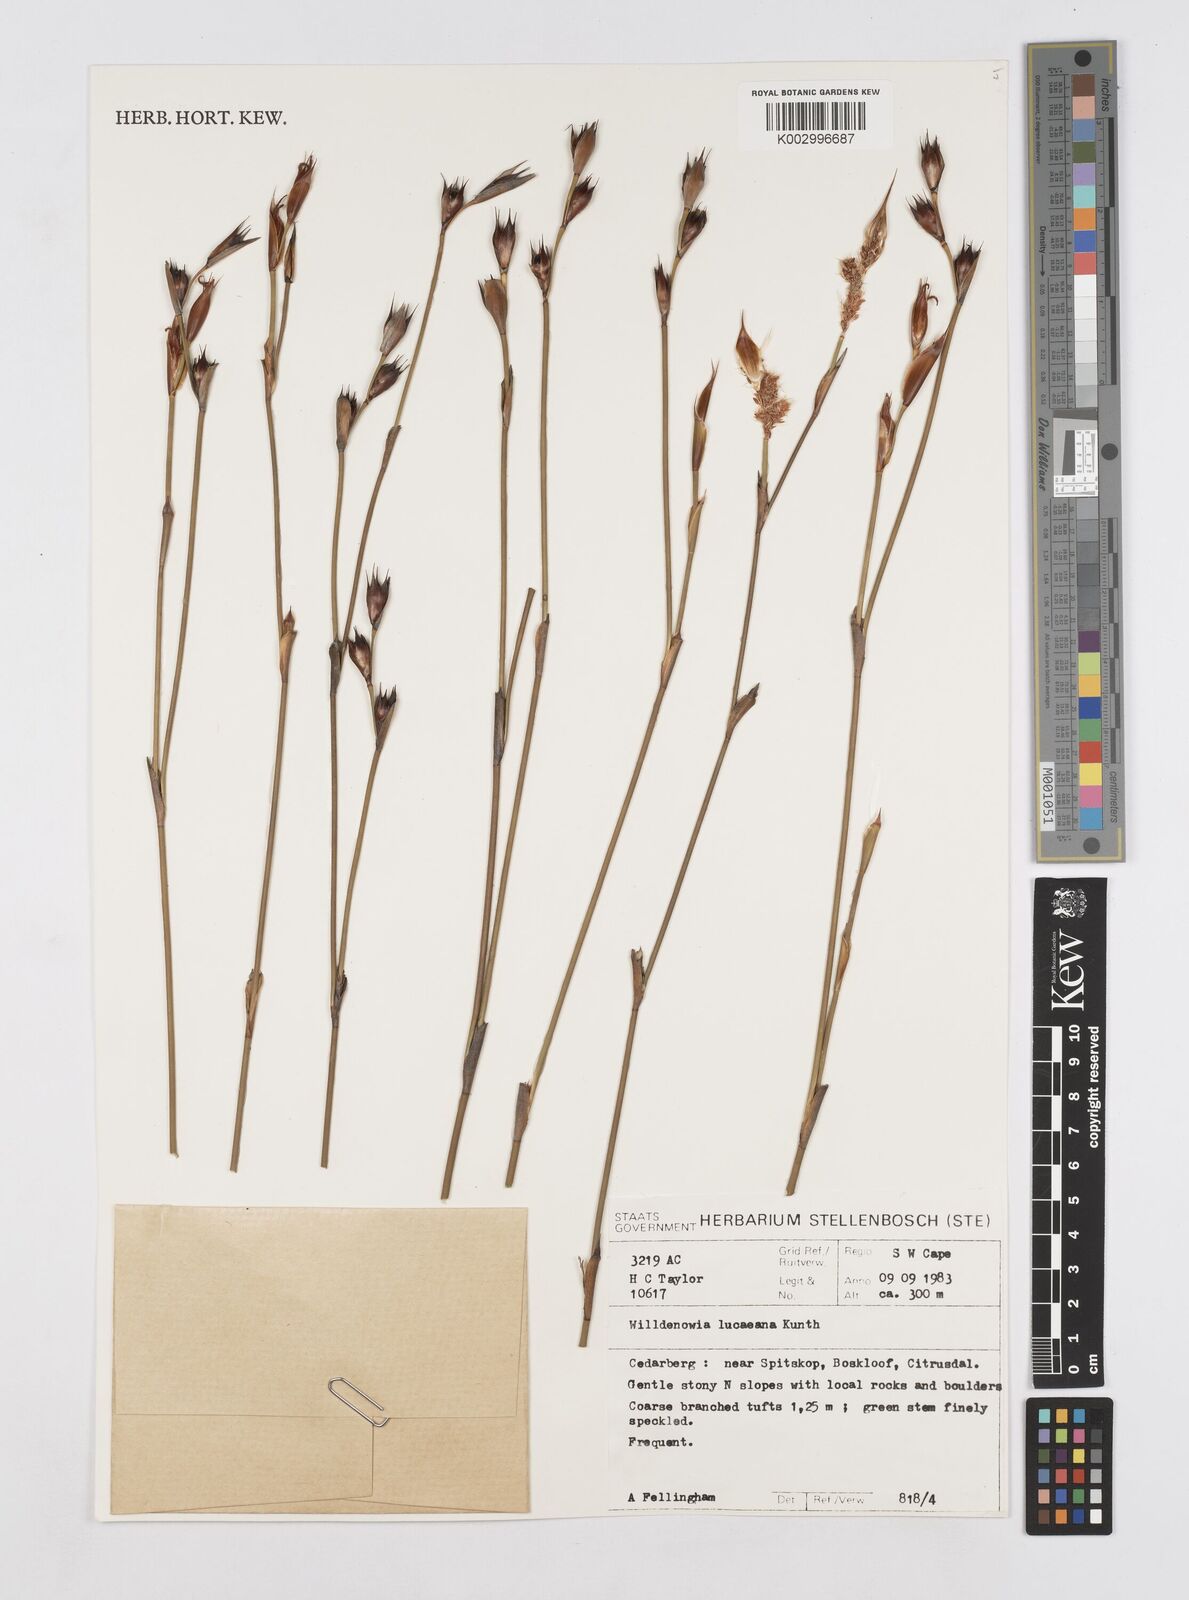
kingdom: Plantae
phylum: Tracheophyta
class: Liliopsida
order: Poales
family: Restionaceae
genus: Willdenowia
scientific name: Willdenowia glomerata
